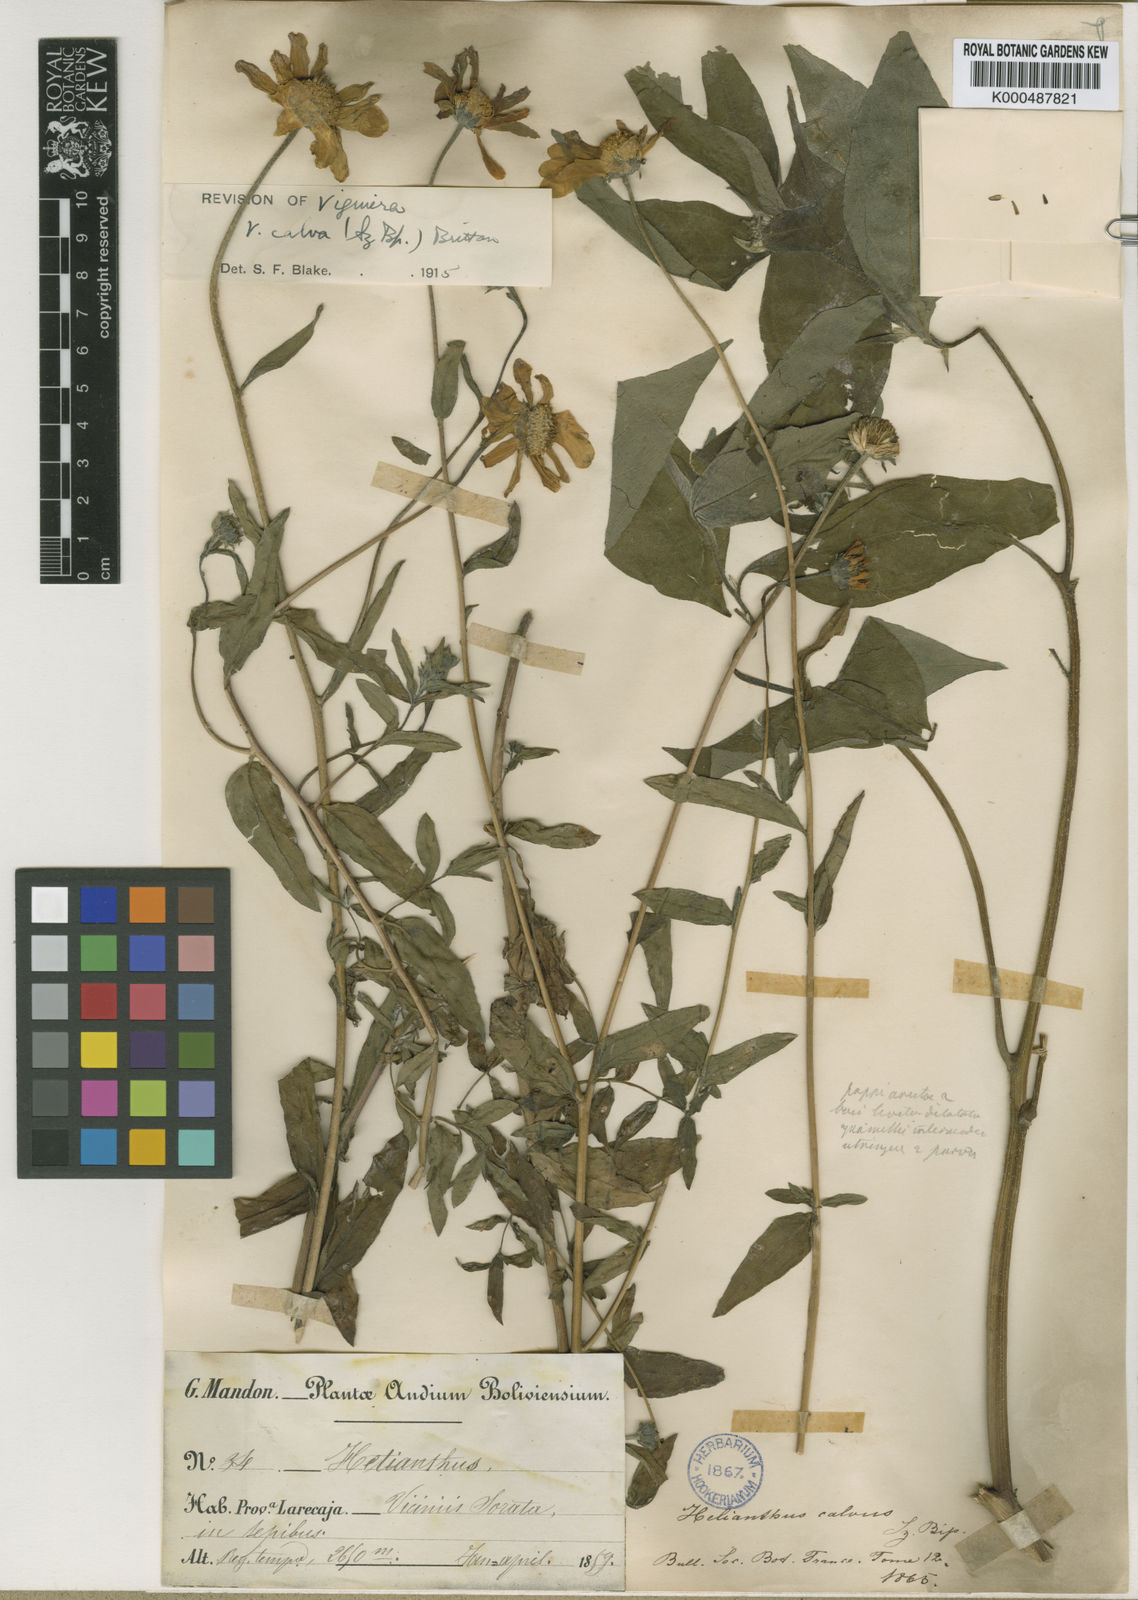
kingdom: Plantae
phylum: Tracheophyta
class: Magnoliopsida
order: Asterales
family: Asteraceae
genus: Aldama
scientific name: Aldama helianthoides
